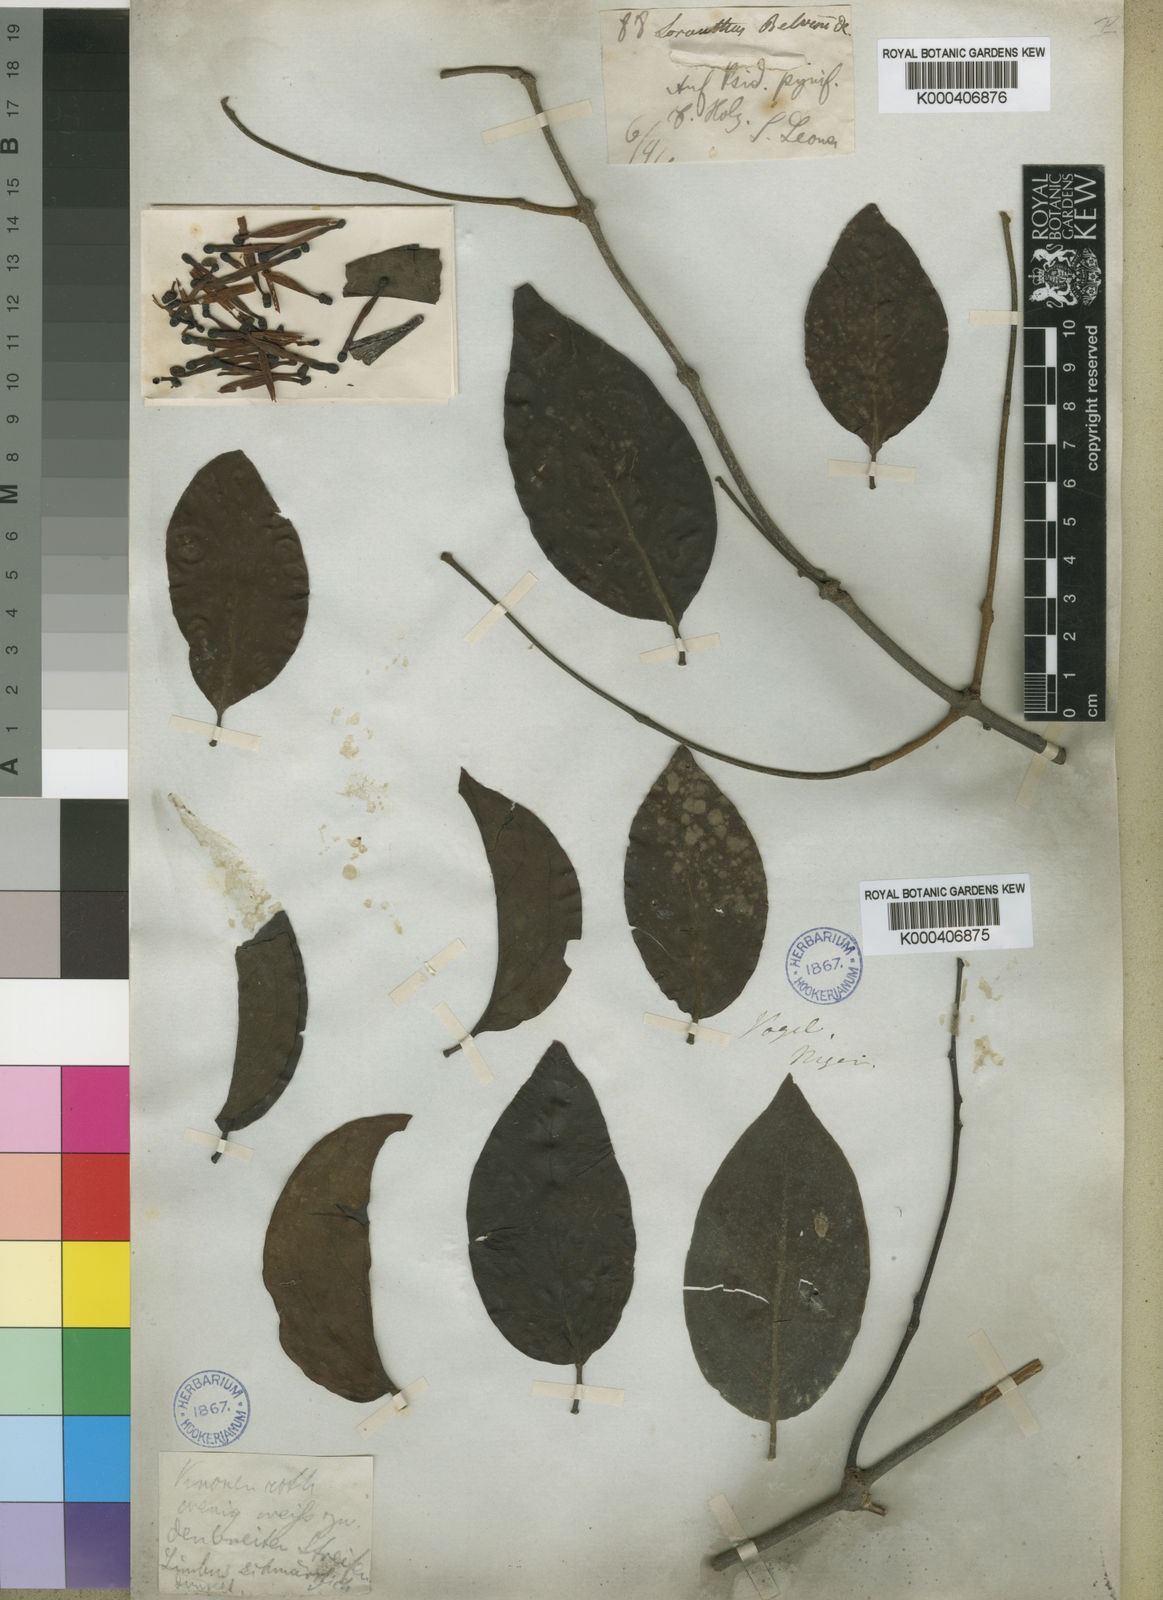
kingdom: Plantae
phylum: Tracheophyta
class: Magnoliopsida
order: Santalales
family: Loranthaceae
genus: Tapinanthus
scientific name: Tapinanthus bangwensis
